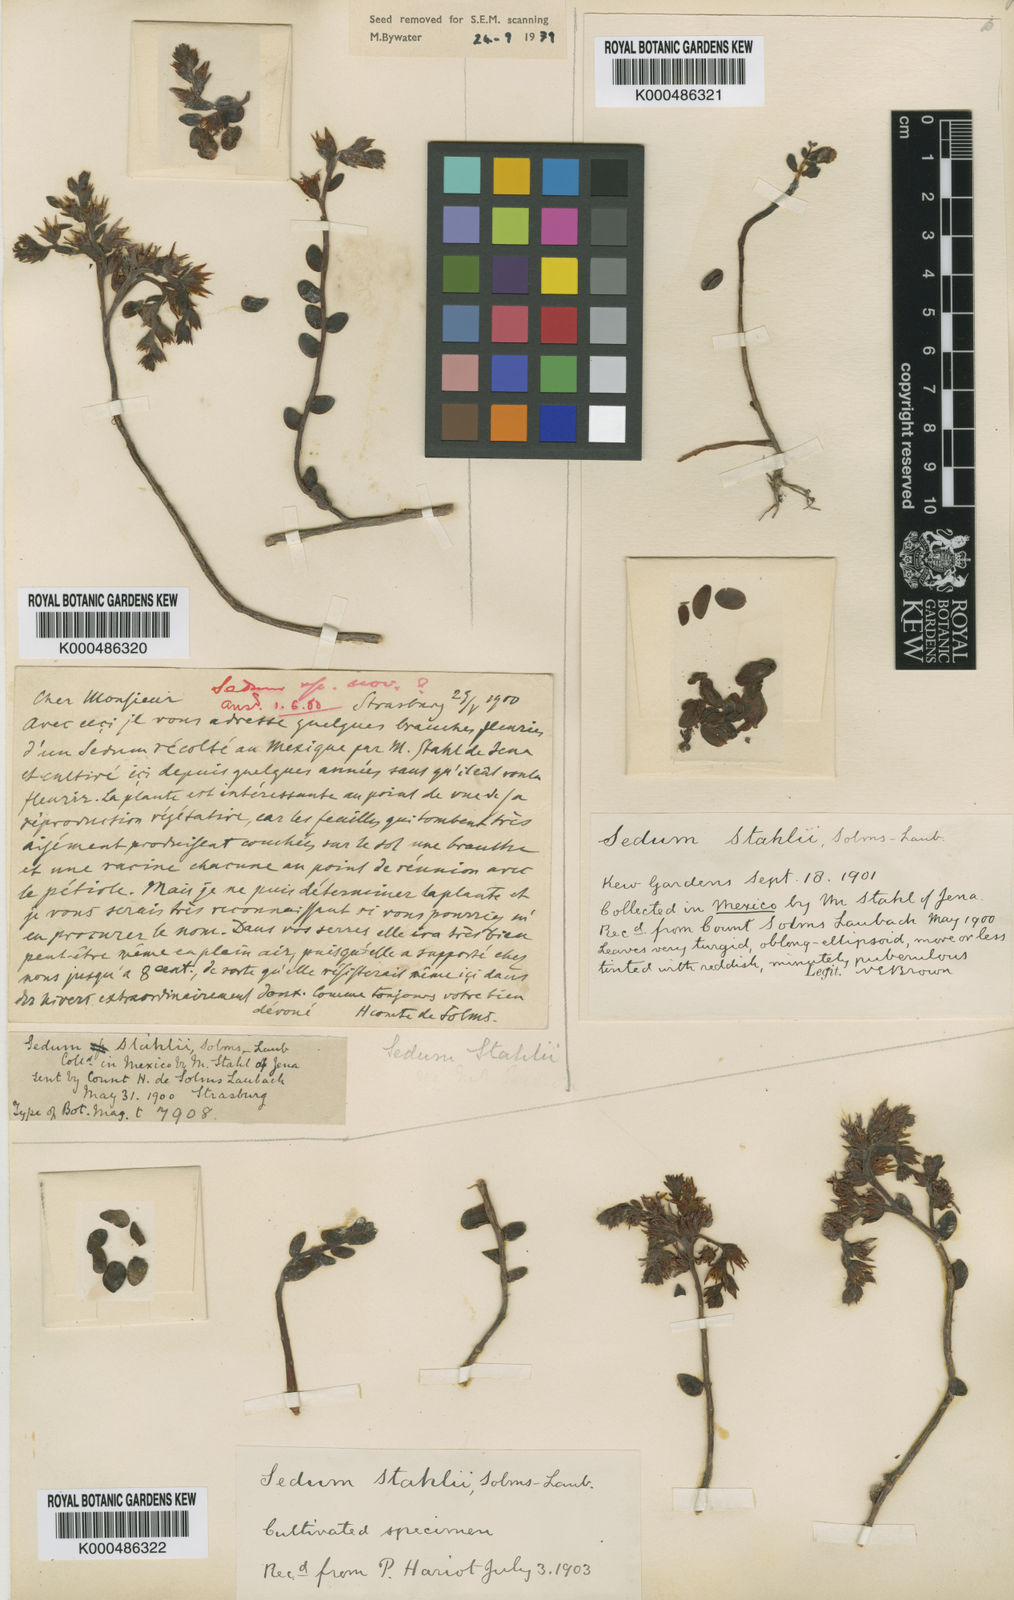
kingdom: Plantae
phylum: Tracheophyta
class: Magnoliopsida
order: Saxifragales
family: Crassulaceae
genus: Sedum
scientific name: Sedum stahlii
